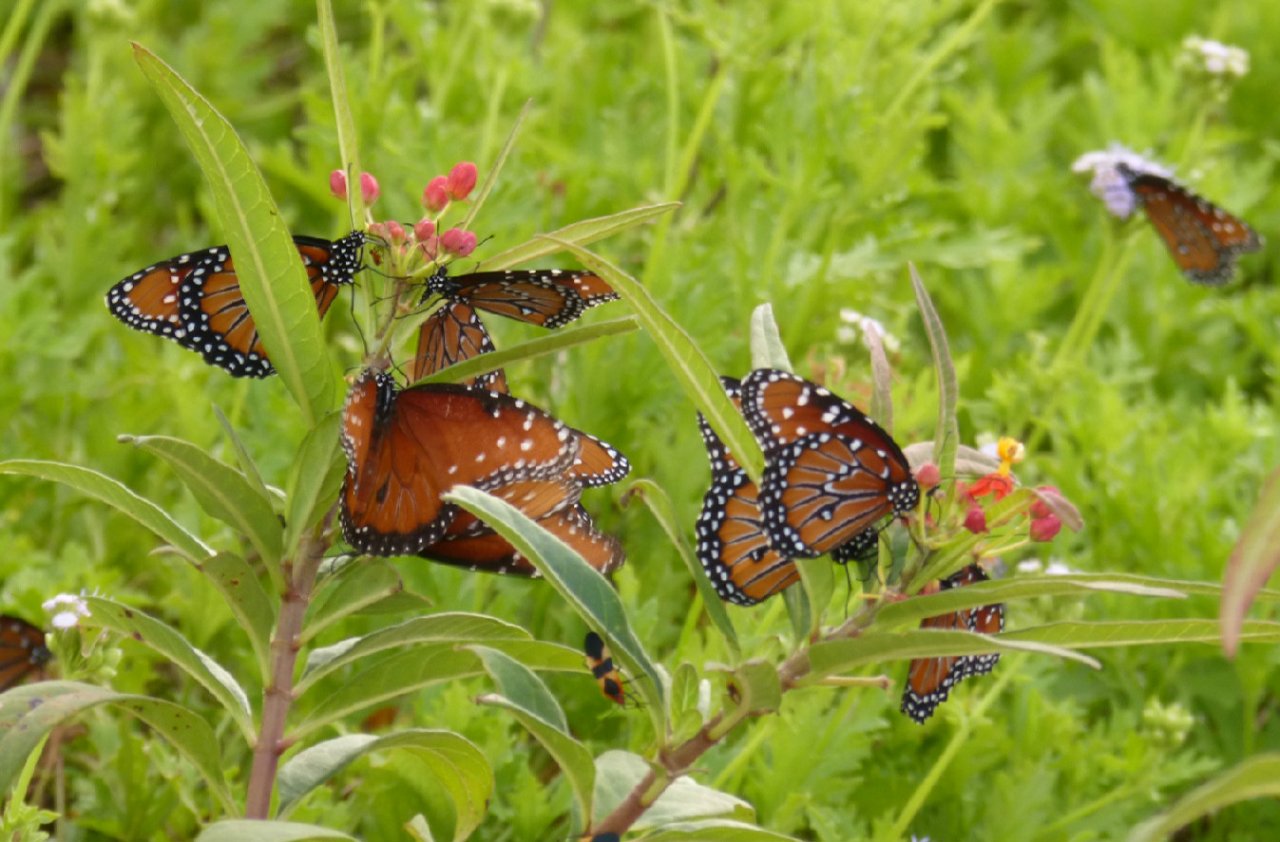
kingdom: Animalia
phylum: Arthropoda
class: Insecta
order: Lepidoptera
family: Nymphalidae
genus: Danaus
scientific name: Danaus gilippus
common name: Queen
